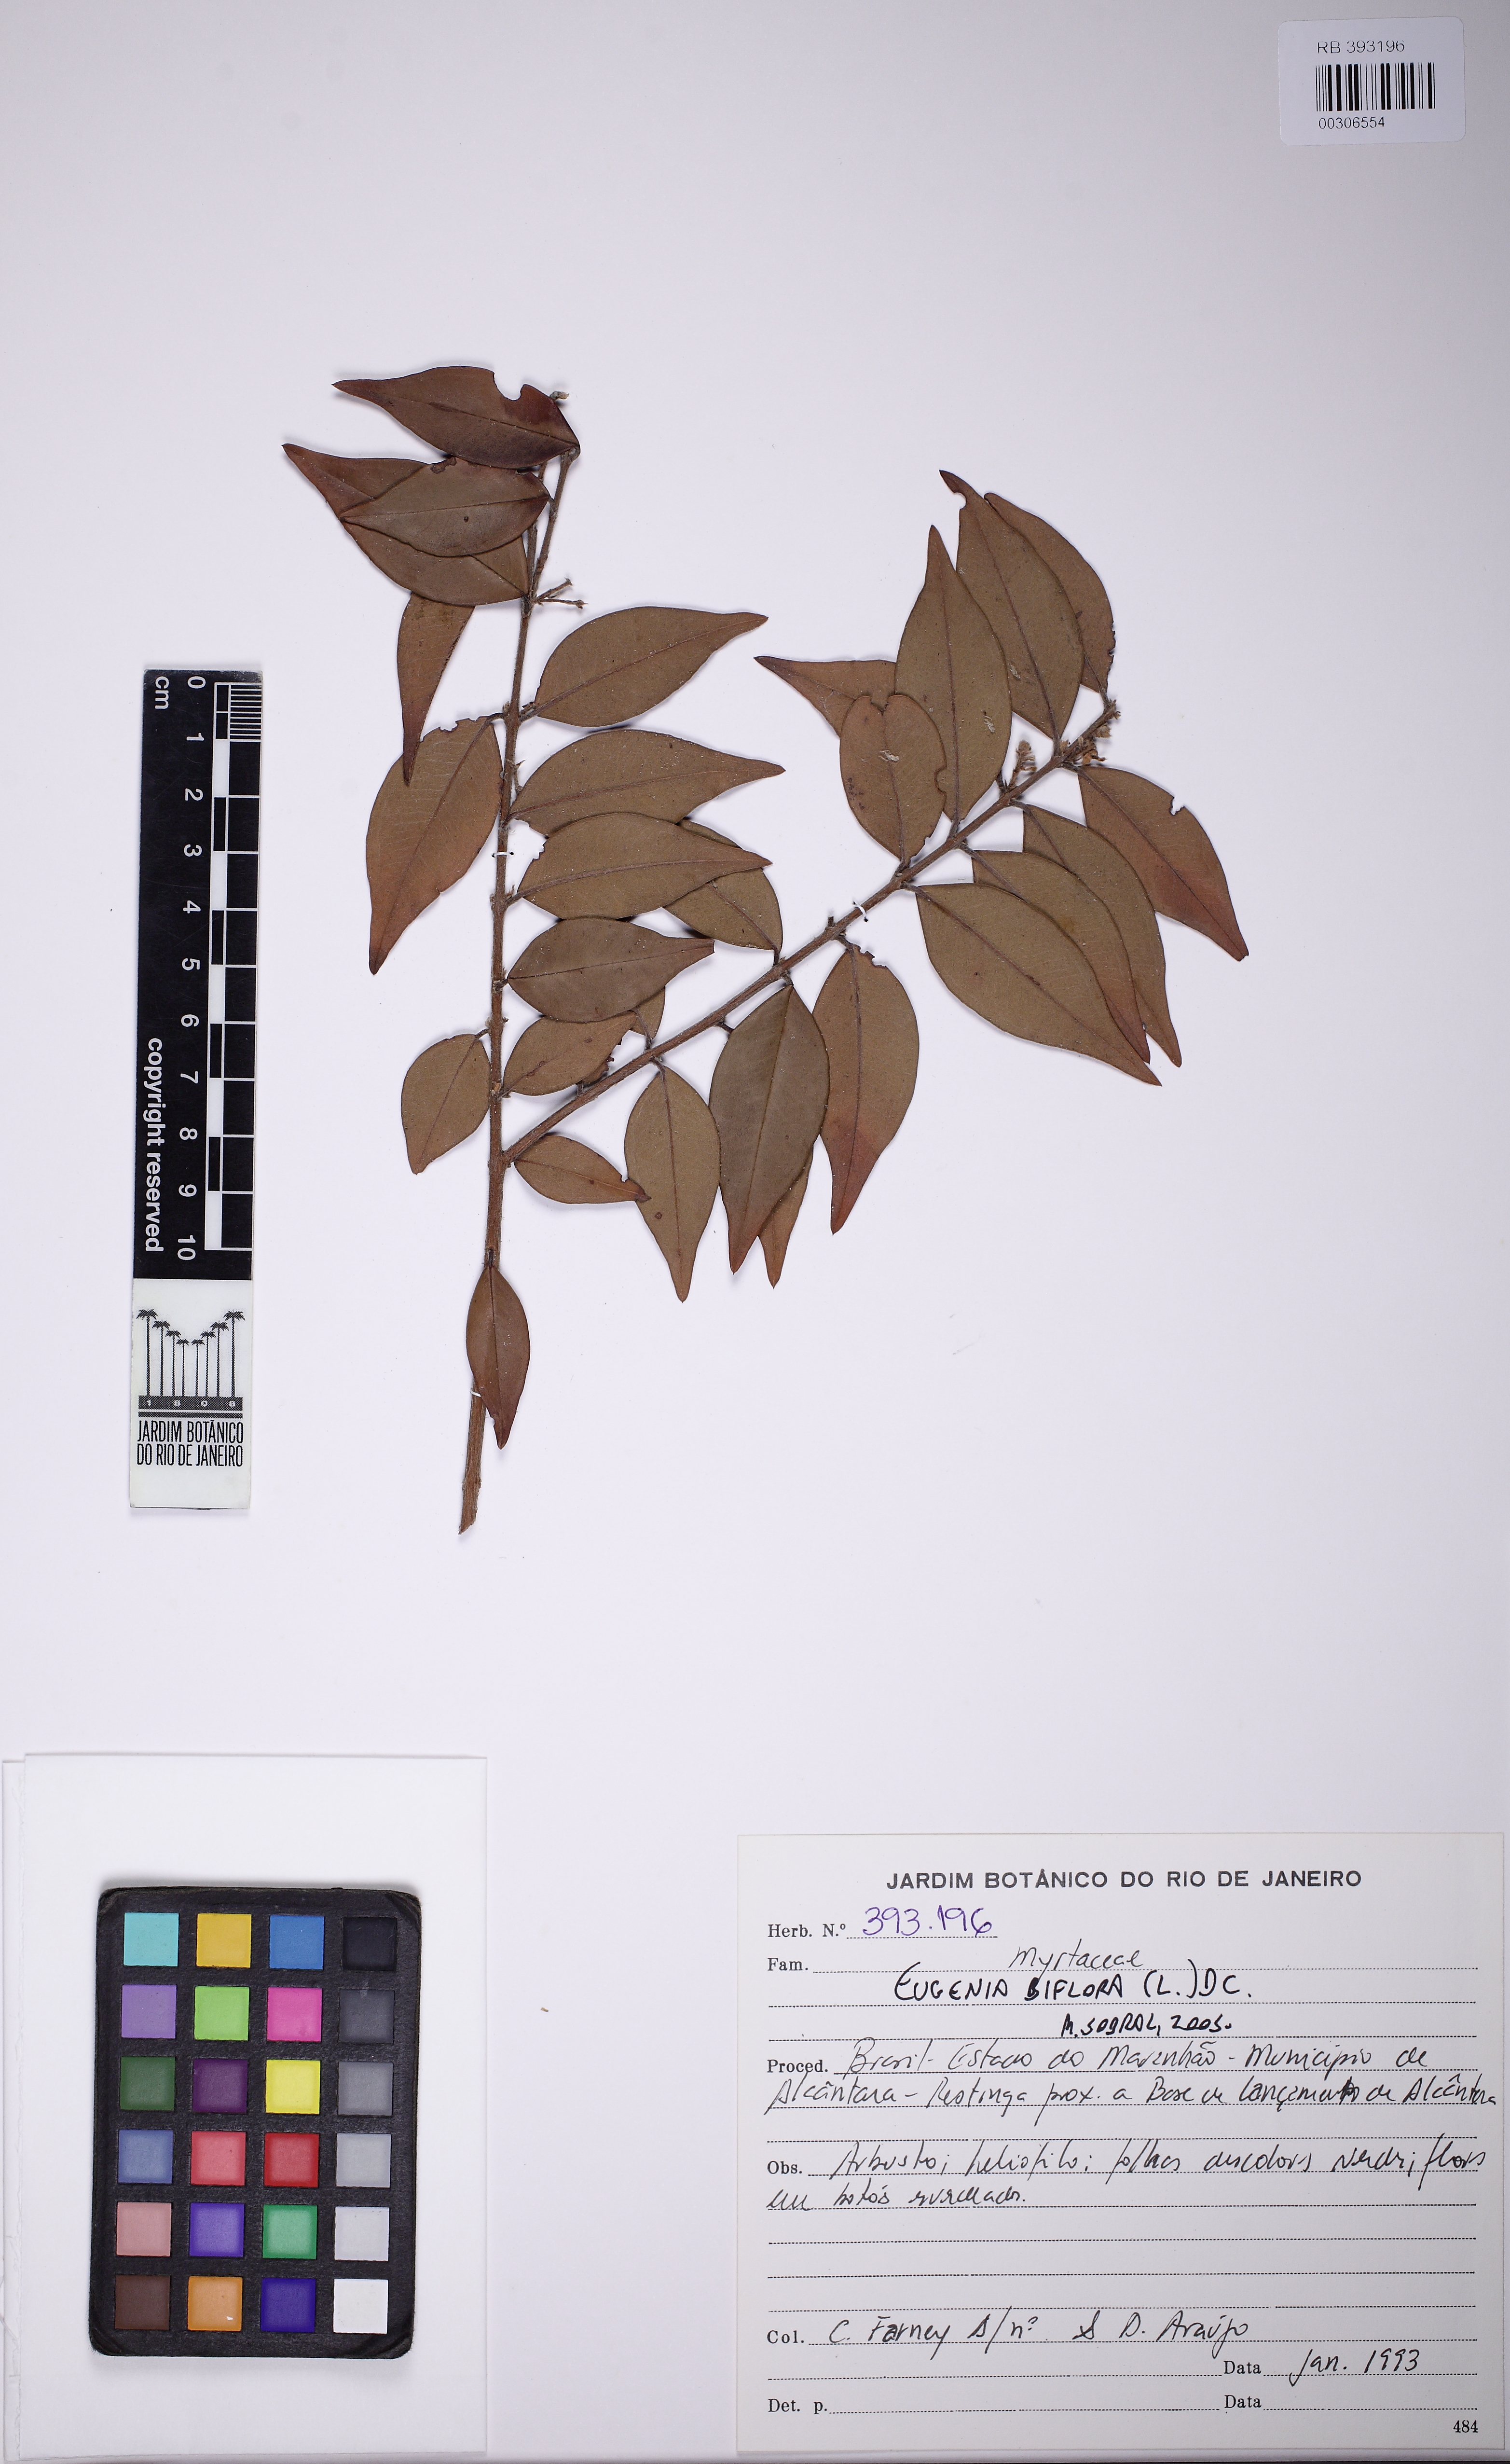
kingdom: Plantae
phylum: Tracheophyta
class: Magnoliopsida
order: Myrtales
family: Myrtaceae
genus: Eugenia
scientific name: Eugenia biflora
